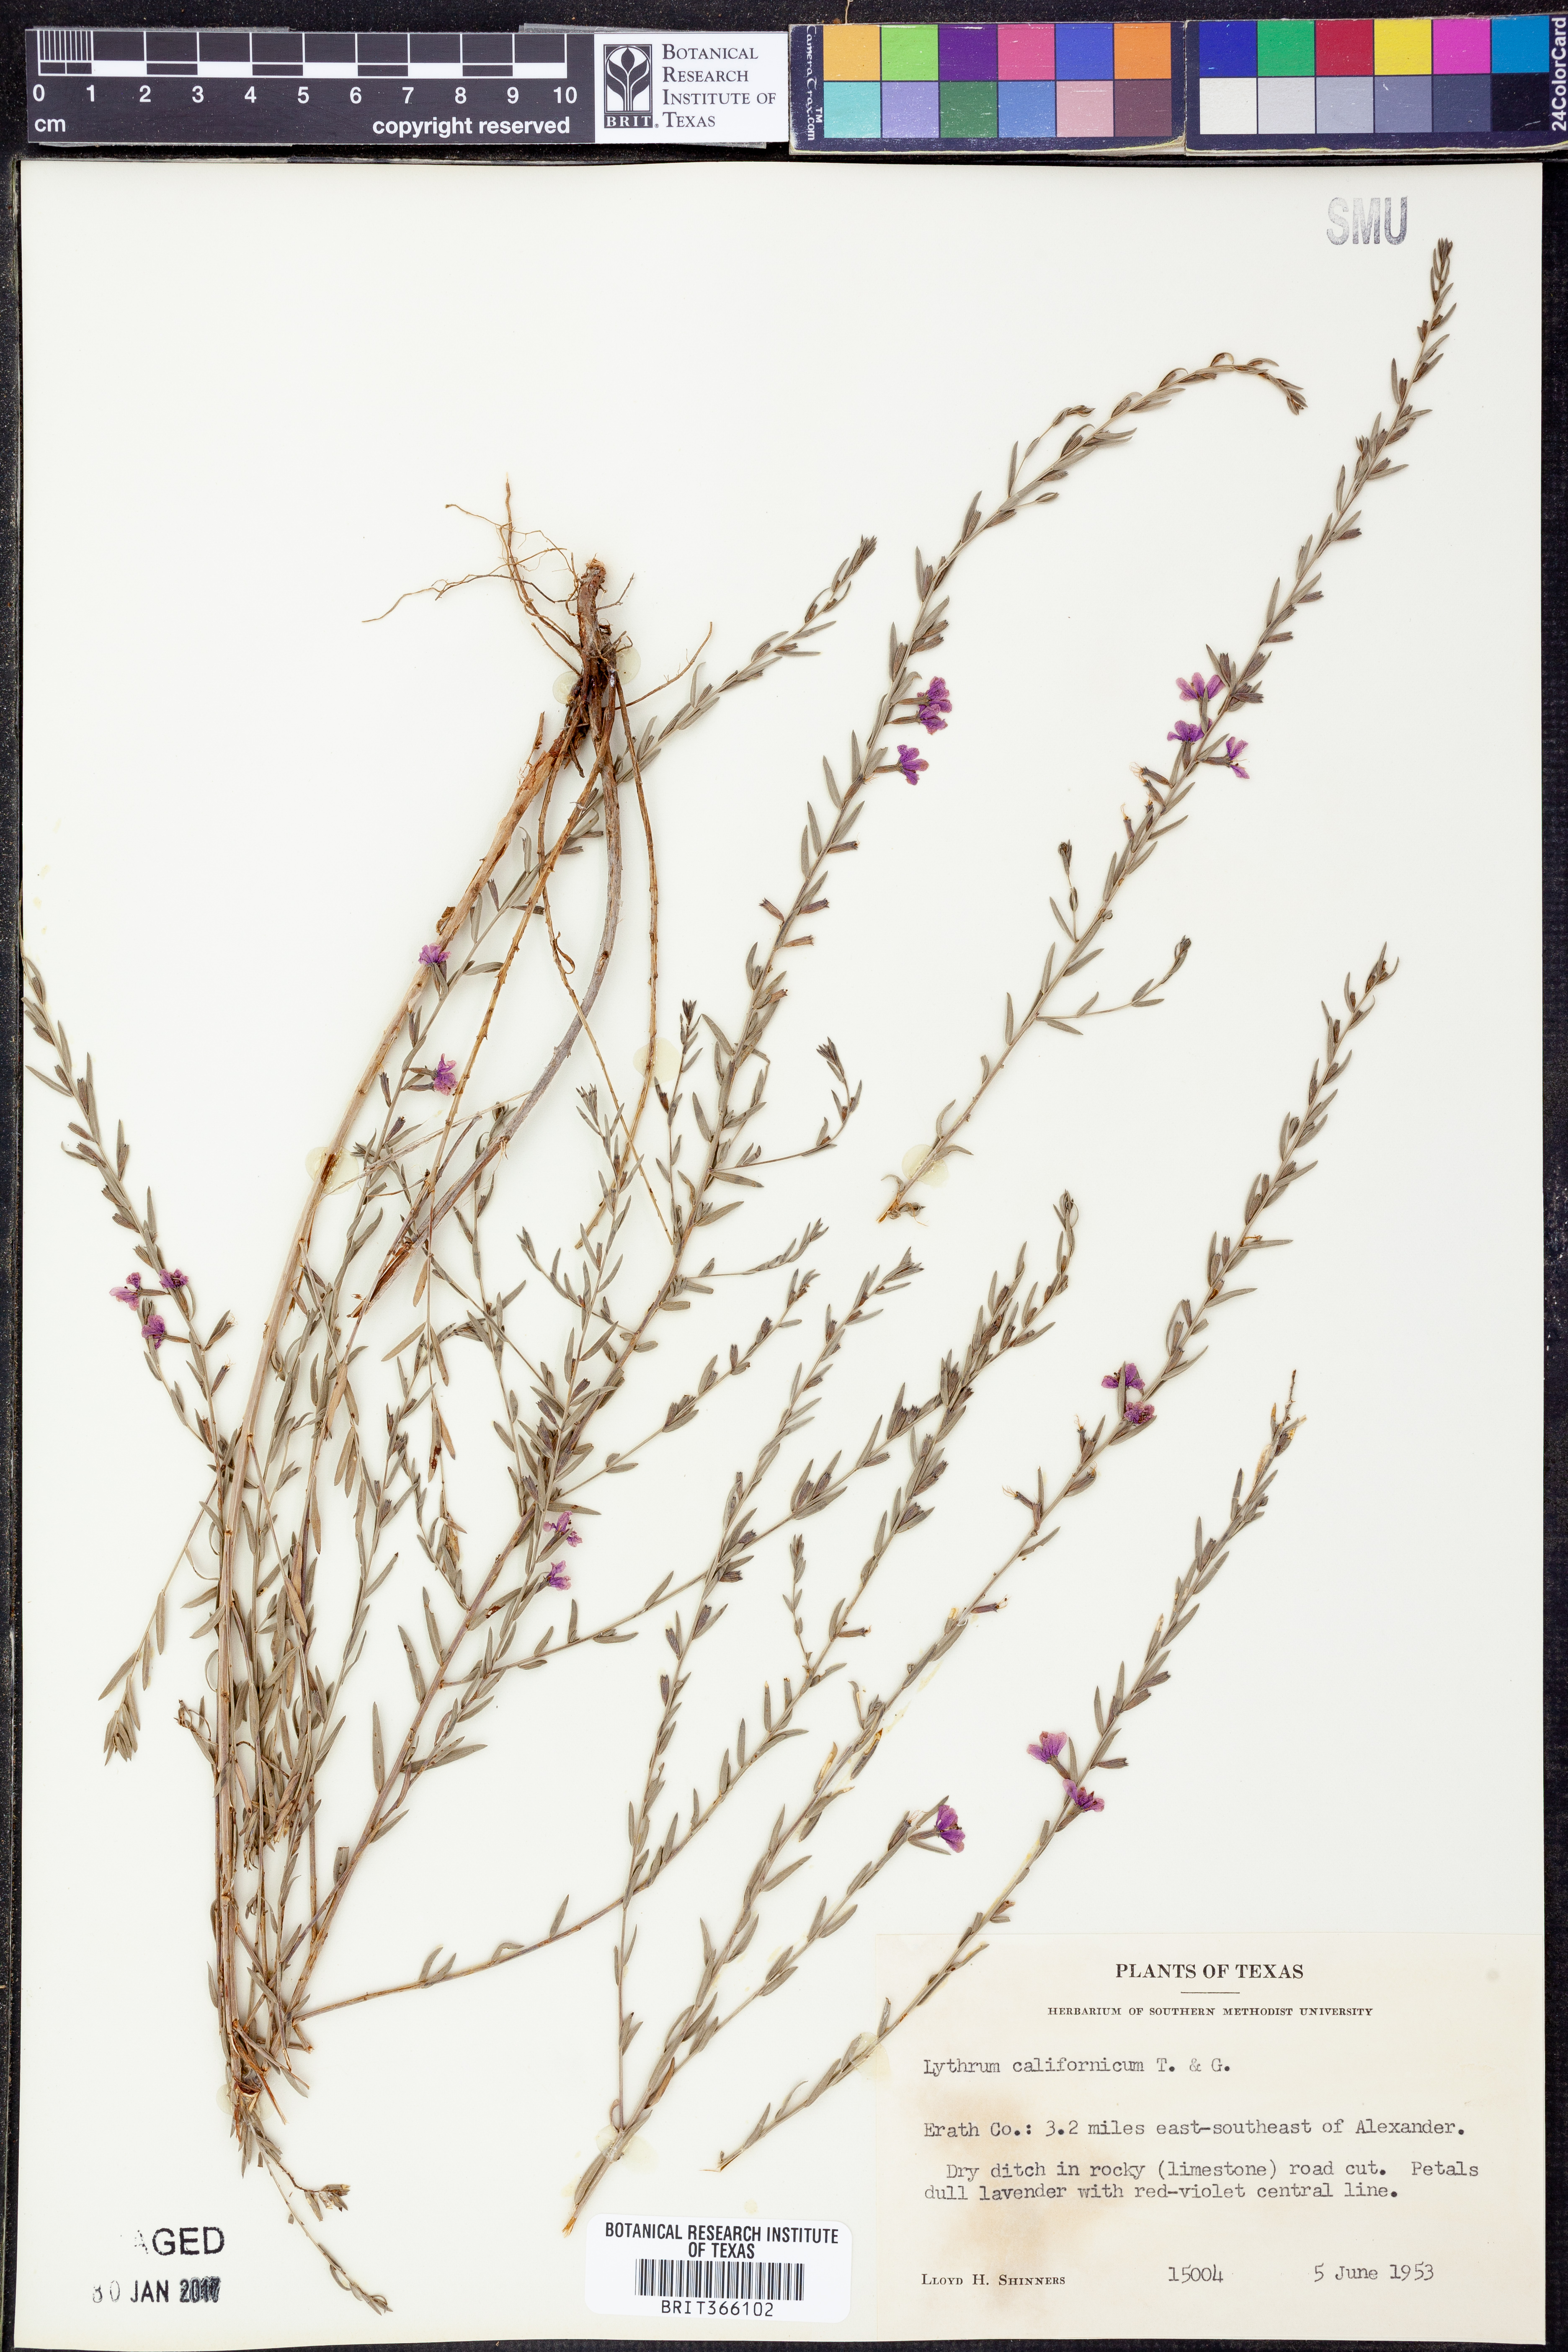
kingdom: Plantae
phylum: Tracheophyta
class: Magnoliopsida
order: Myrtales
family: Lythraceae
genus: Lythrum
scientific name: Lythrum californicum
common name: California loosestrife
